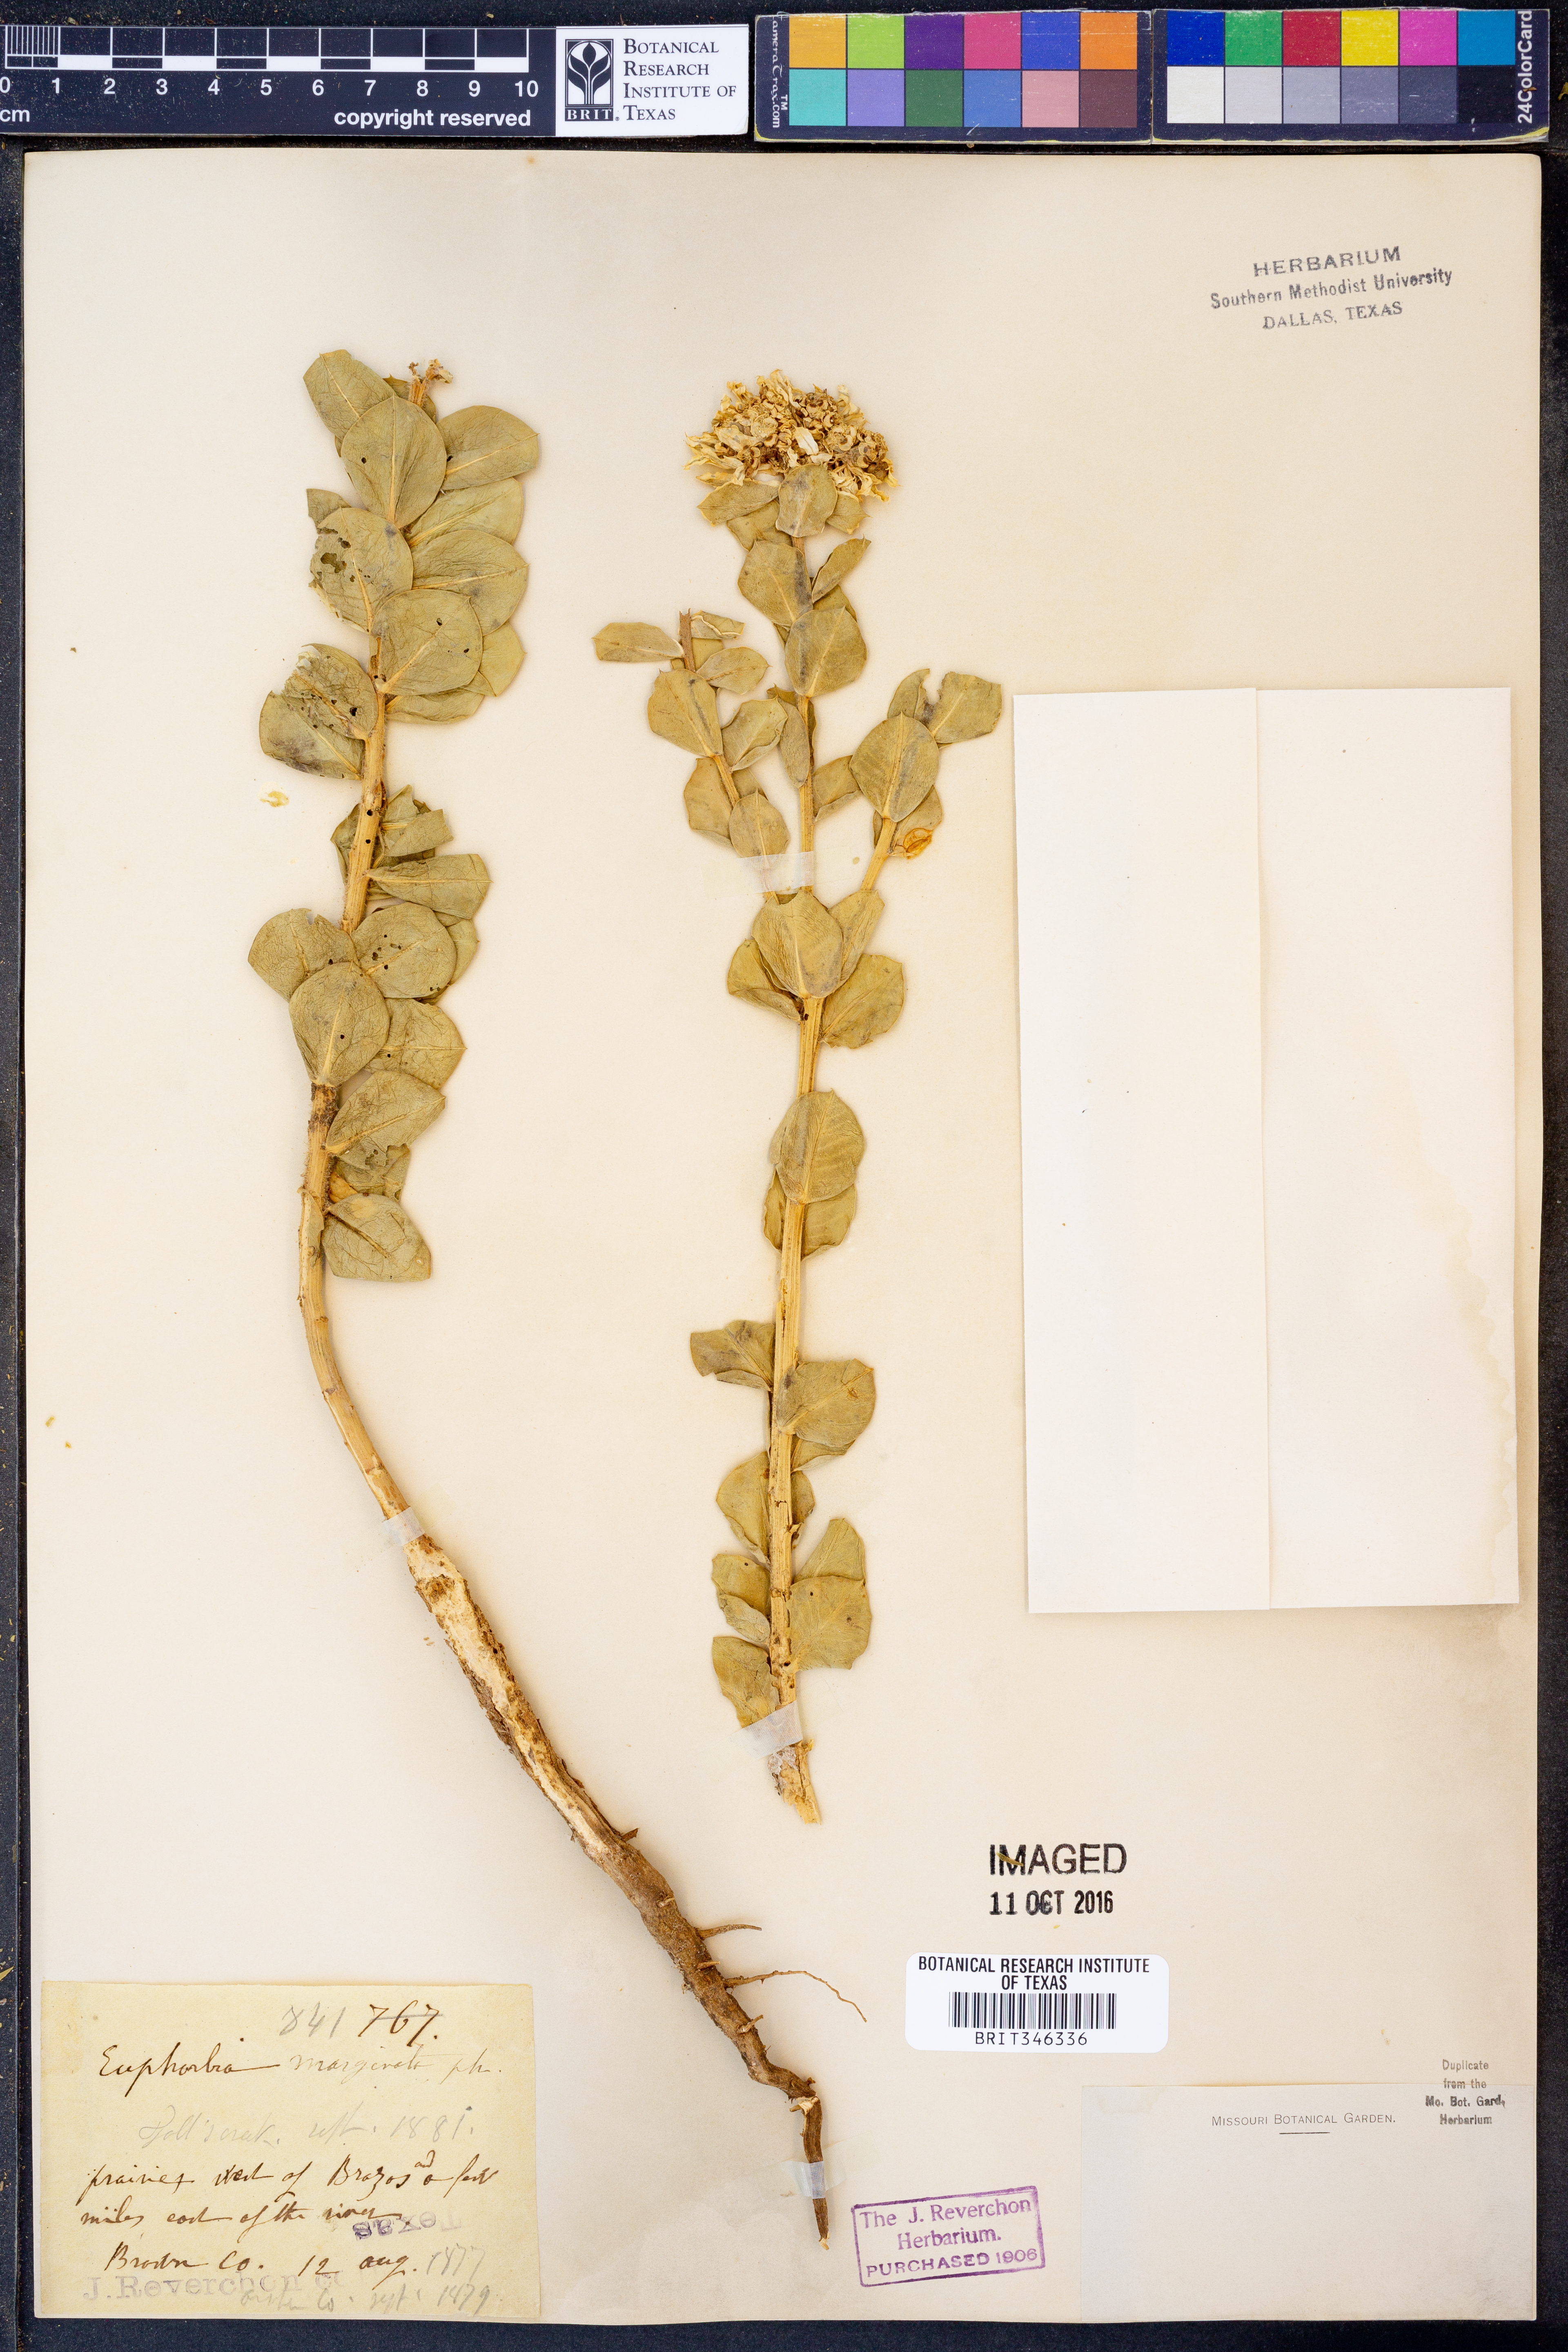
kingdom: Plantae
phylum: Tracheophyta
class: Magnoliopsida
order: Malpighiales
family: Euphorbiaceae
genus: Euphorbia
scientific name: Euphorbia marginata
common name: Ghostweed
